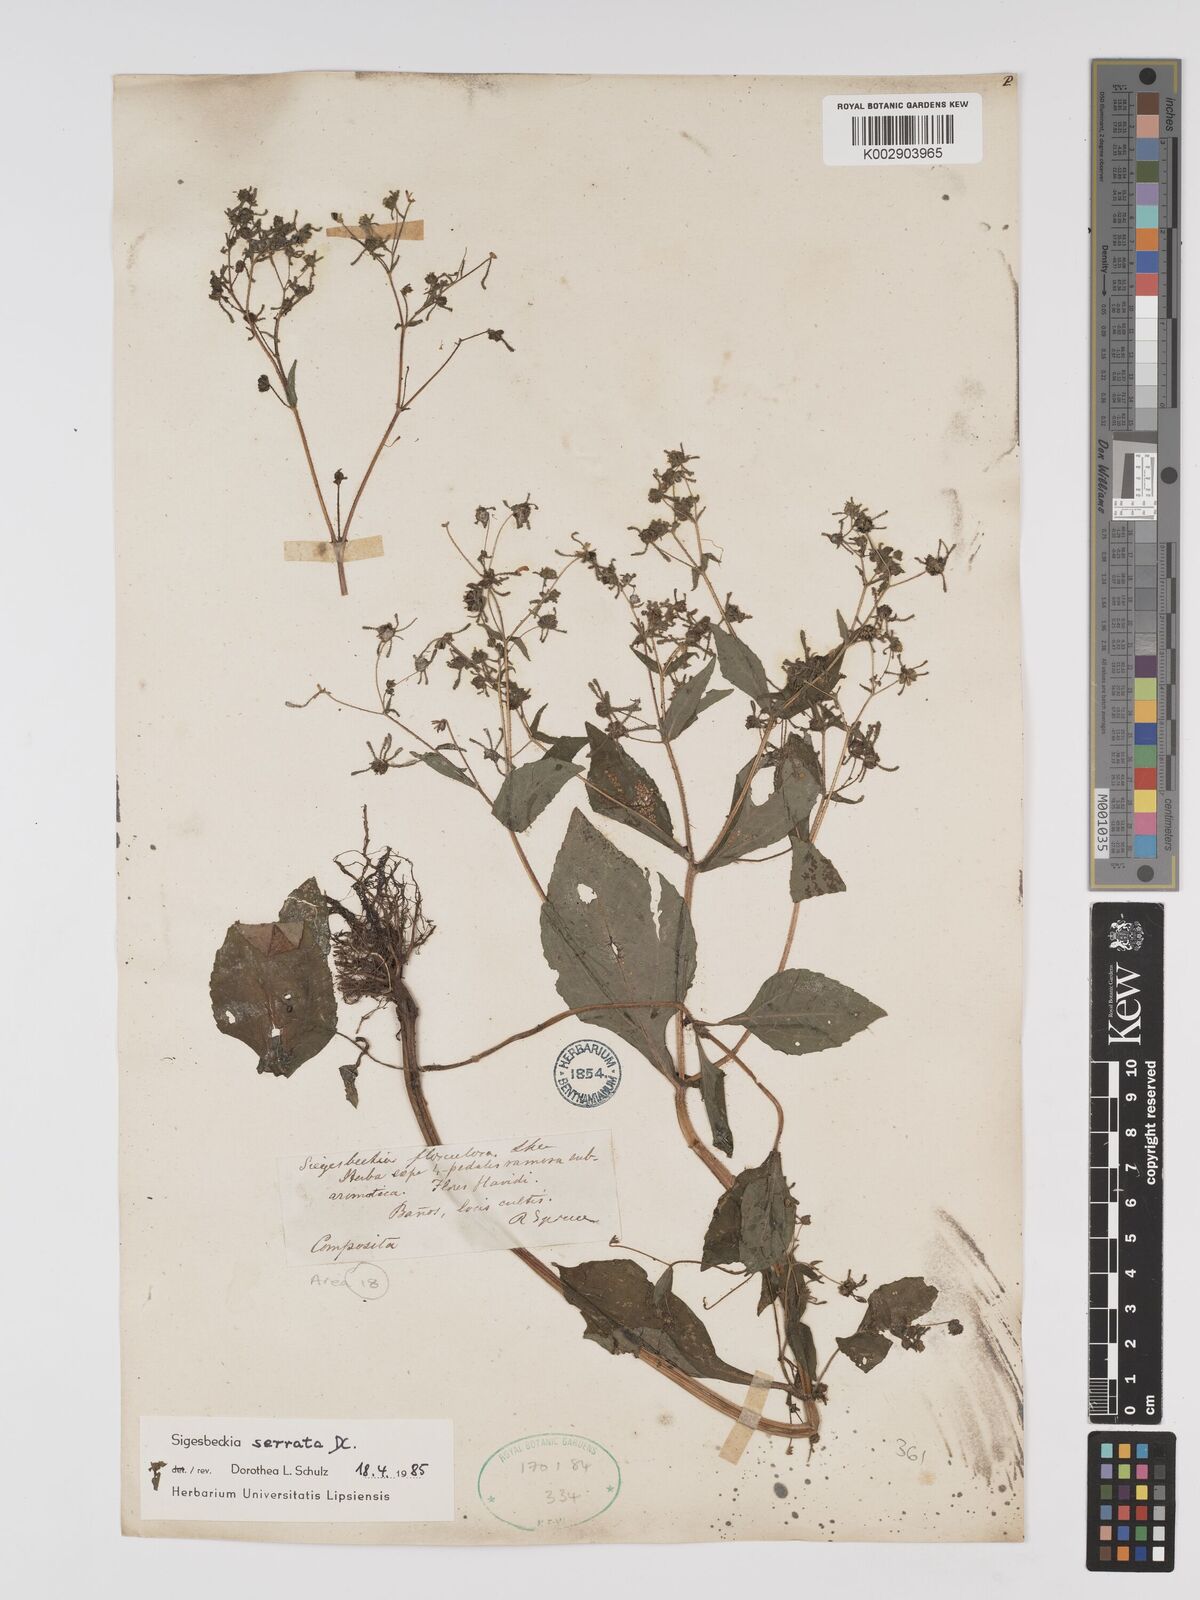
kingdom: Plantae
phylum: Tracheophyta
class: Magnoliopsida
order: Asterales
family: Asteraceae
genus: Sigesbeckia
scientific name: Sigesbeckia jorullensis
